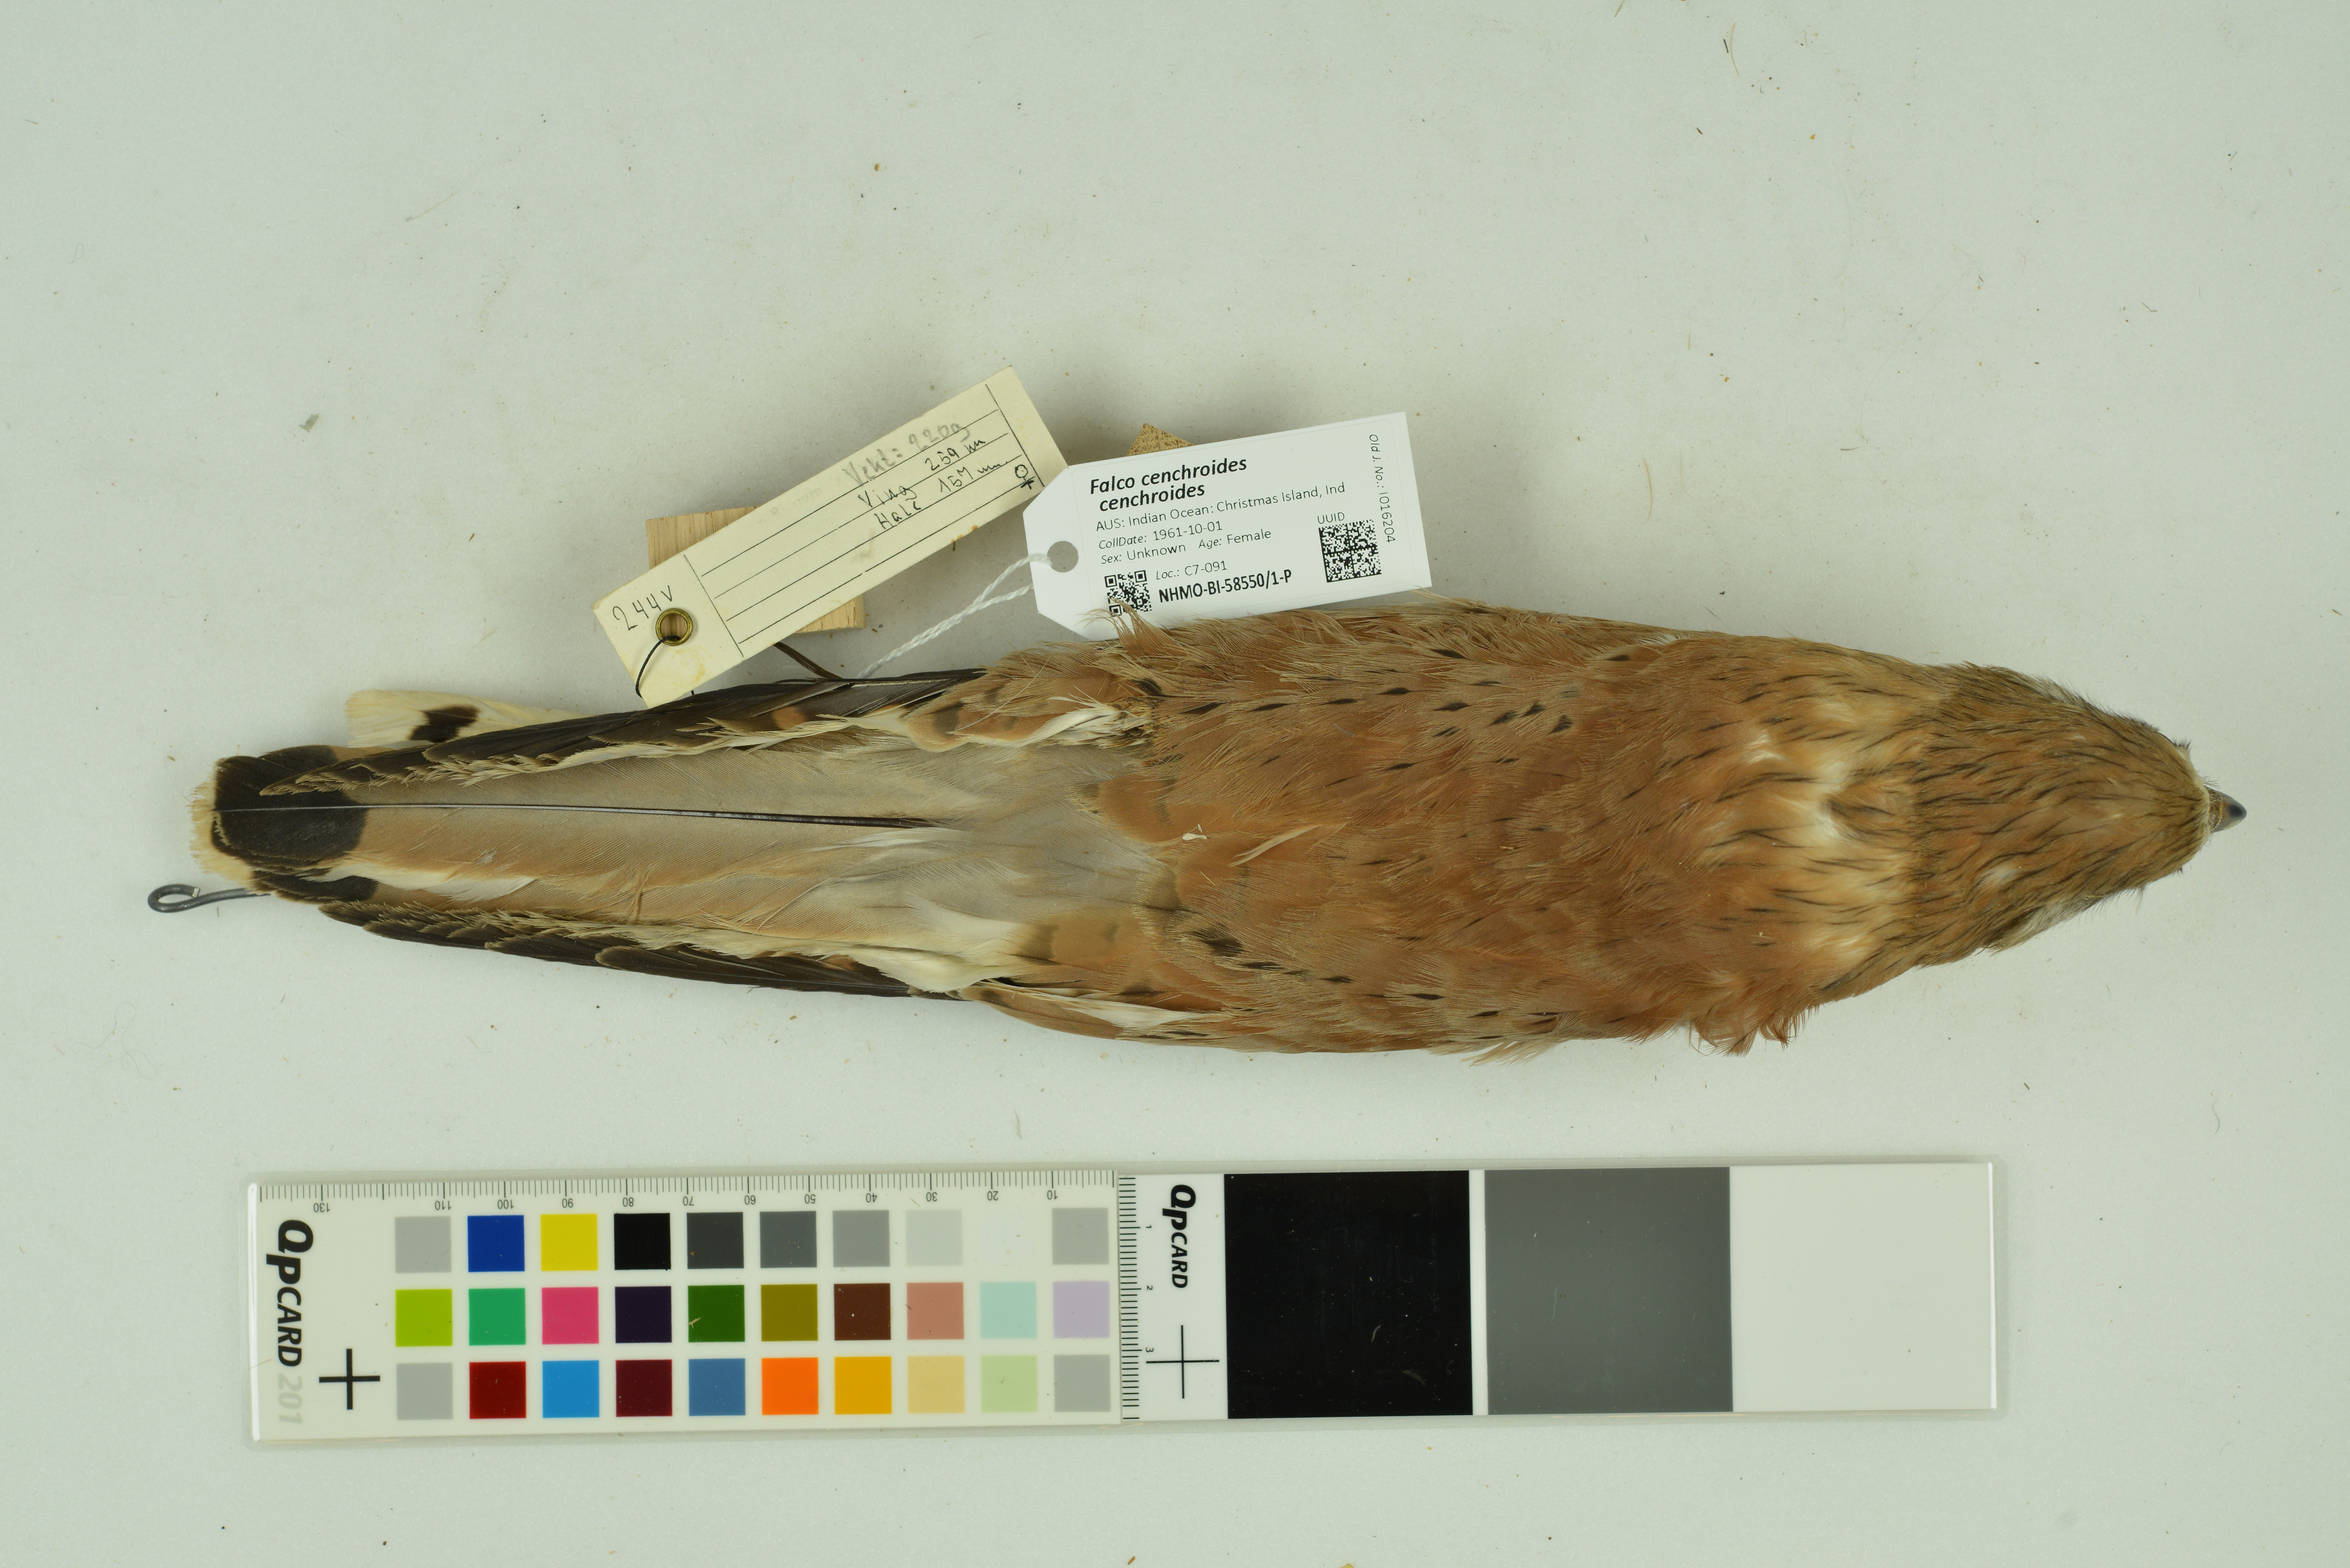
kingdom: Animalia
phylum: Chordata
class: Aves
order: Falconiformes
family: Falconidae
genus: Falco
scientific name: Falco cenchroides
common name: Nankeen kestrel
